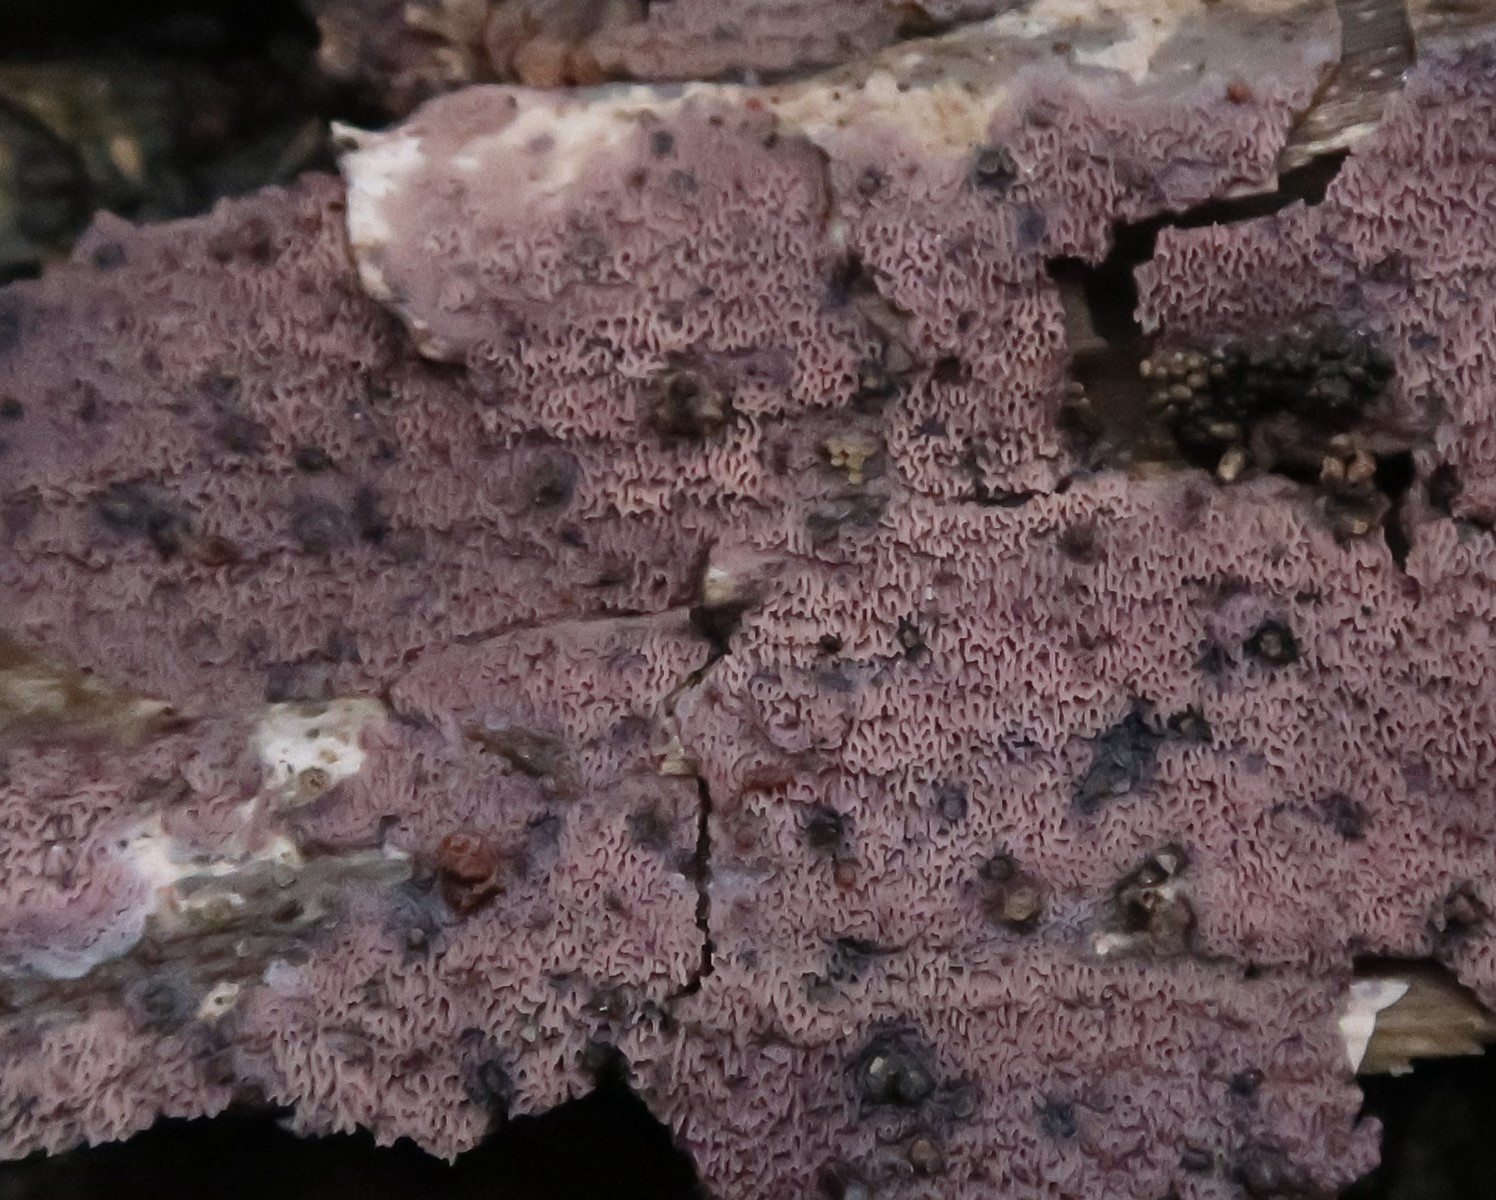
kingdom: Fungi
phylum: Basidiomycota
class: Agaricomycetes
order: Polyporales
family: Irpicaceae
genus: Ceriporia
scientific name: Ceriporia excelsa
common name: lilla voksporesvamp
